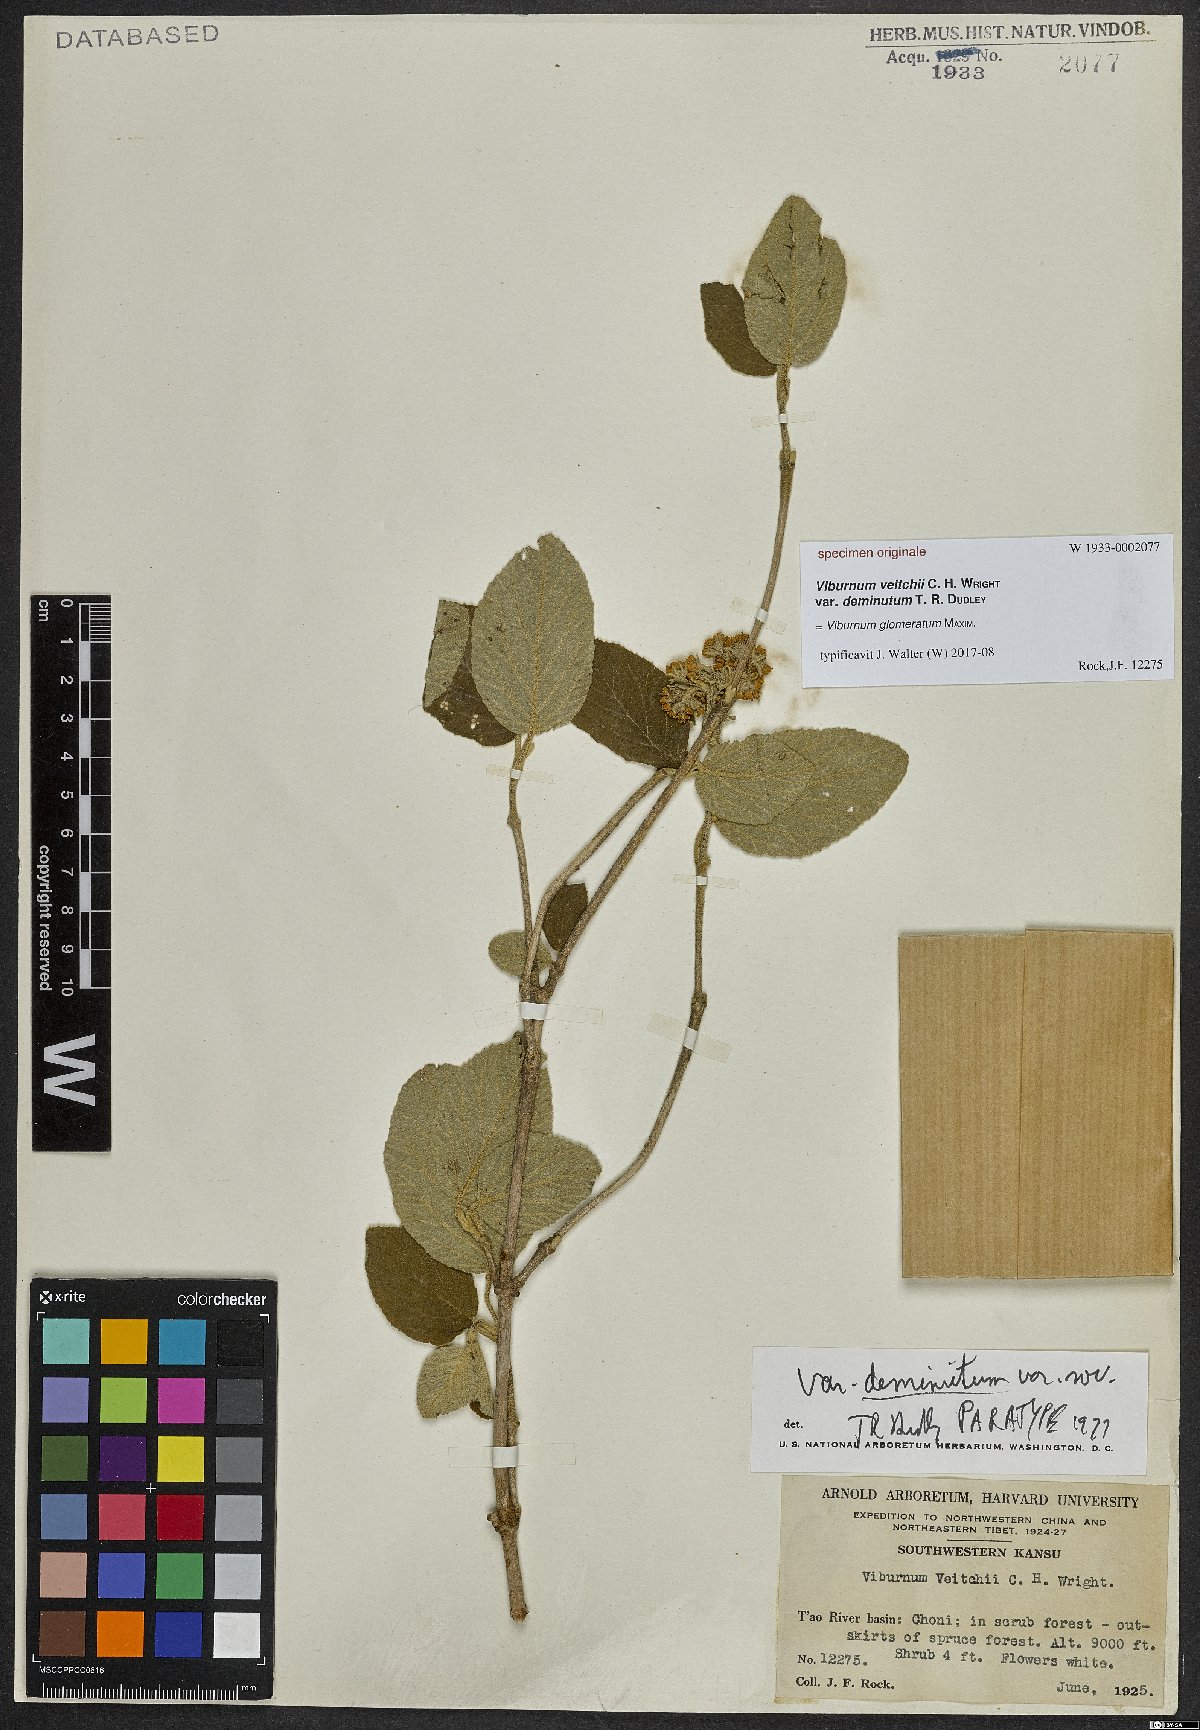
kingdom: Plantae
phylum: Tracheophyta
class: Magnoliopsida
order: Dipsacales
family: Viburnaceae
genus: Viburnum
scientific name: Viburnum glomeratum
